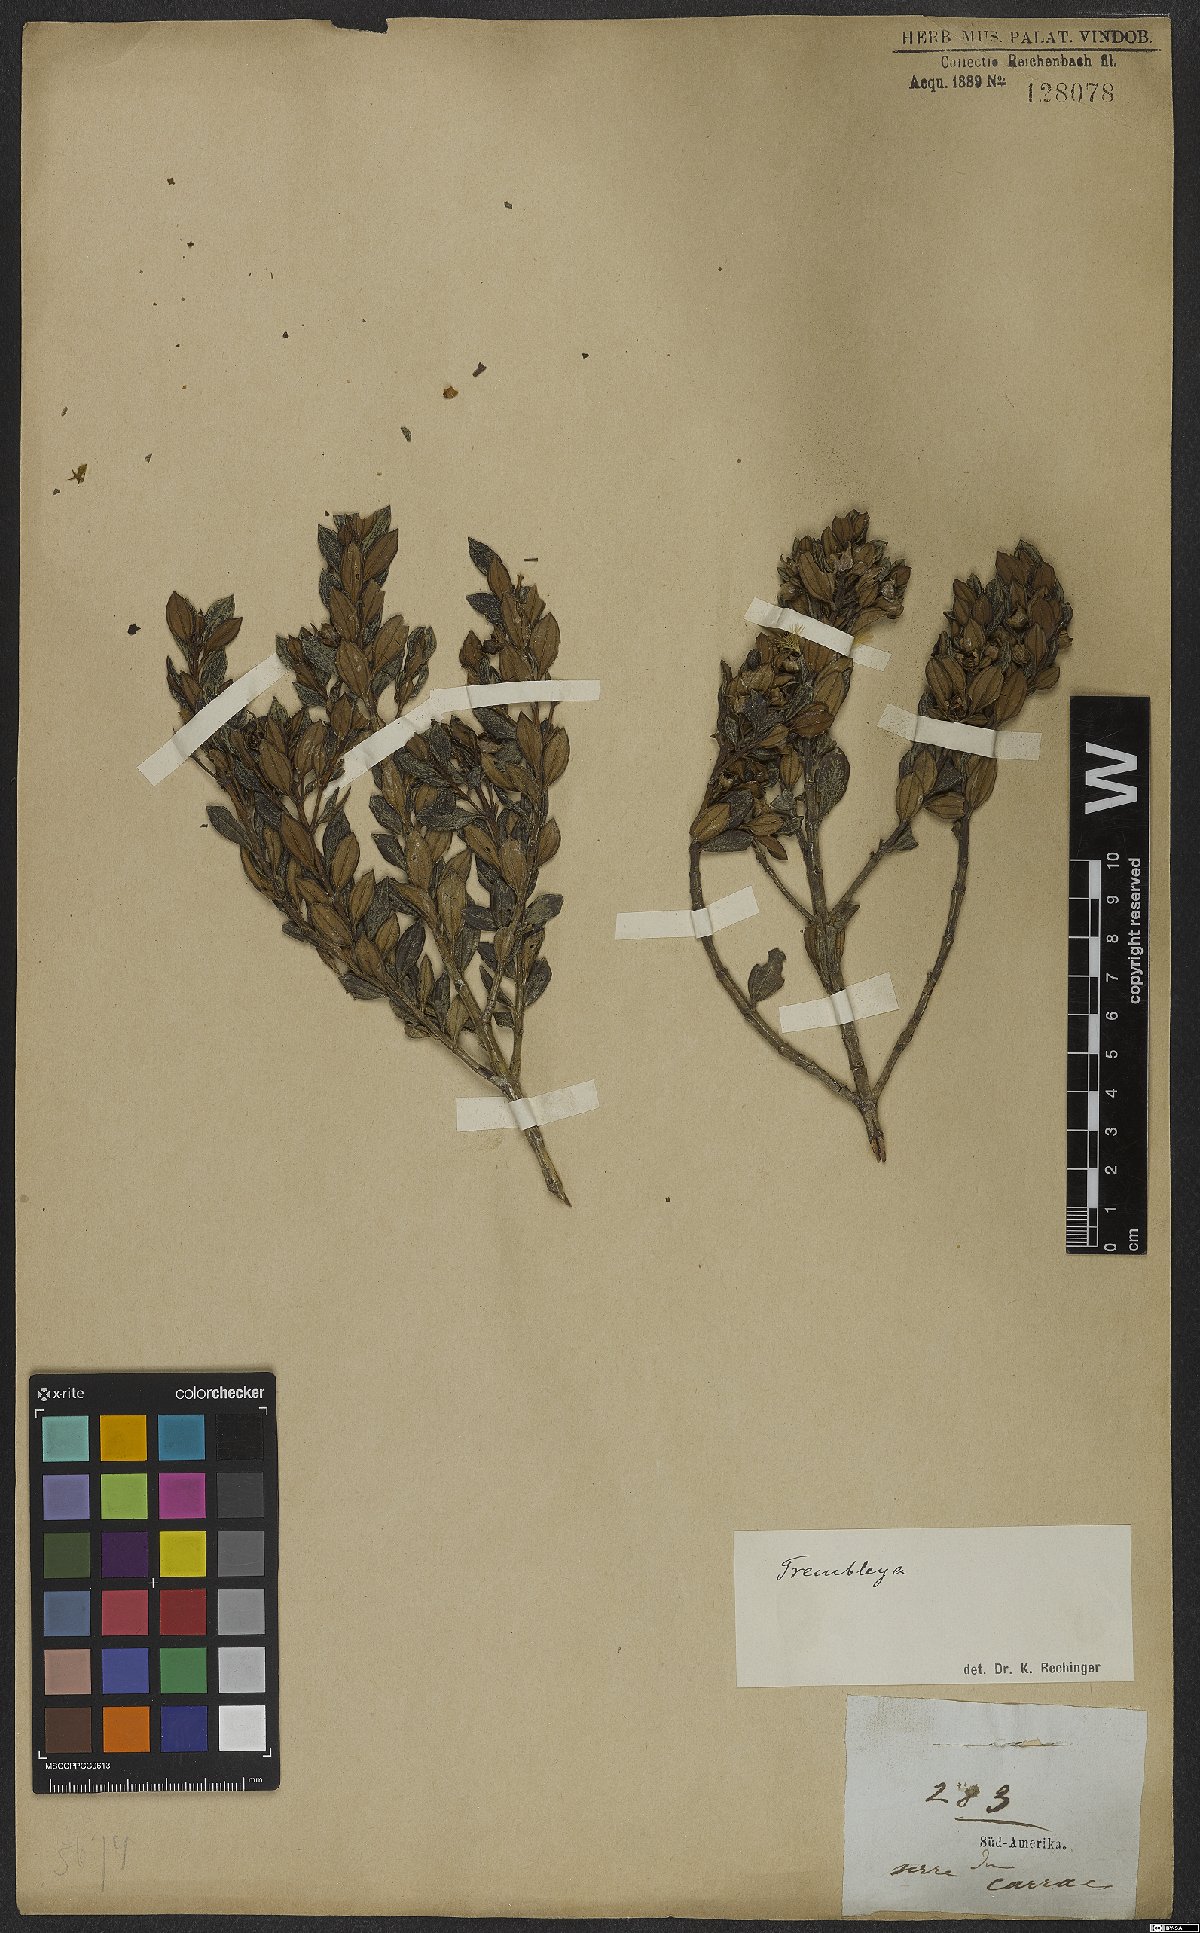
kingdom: Plantae
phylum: Tracheophyta
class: Magnoliopsida
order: Myrtales
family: Melastomataceae
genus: Microlicia
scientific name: Microlicia
